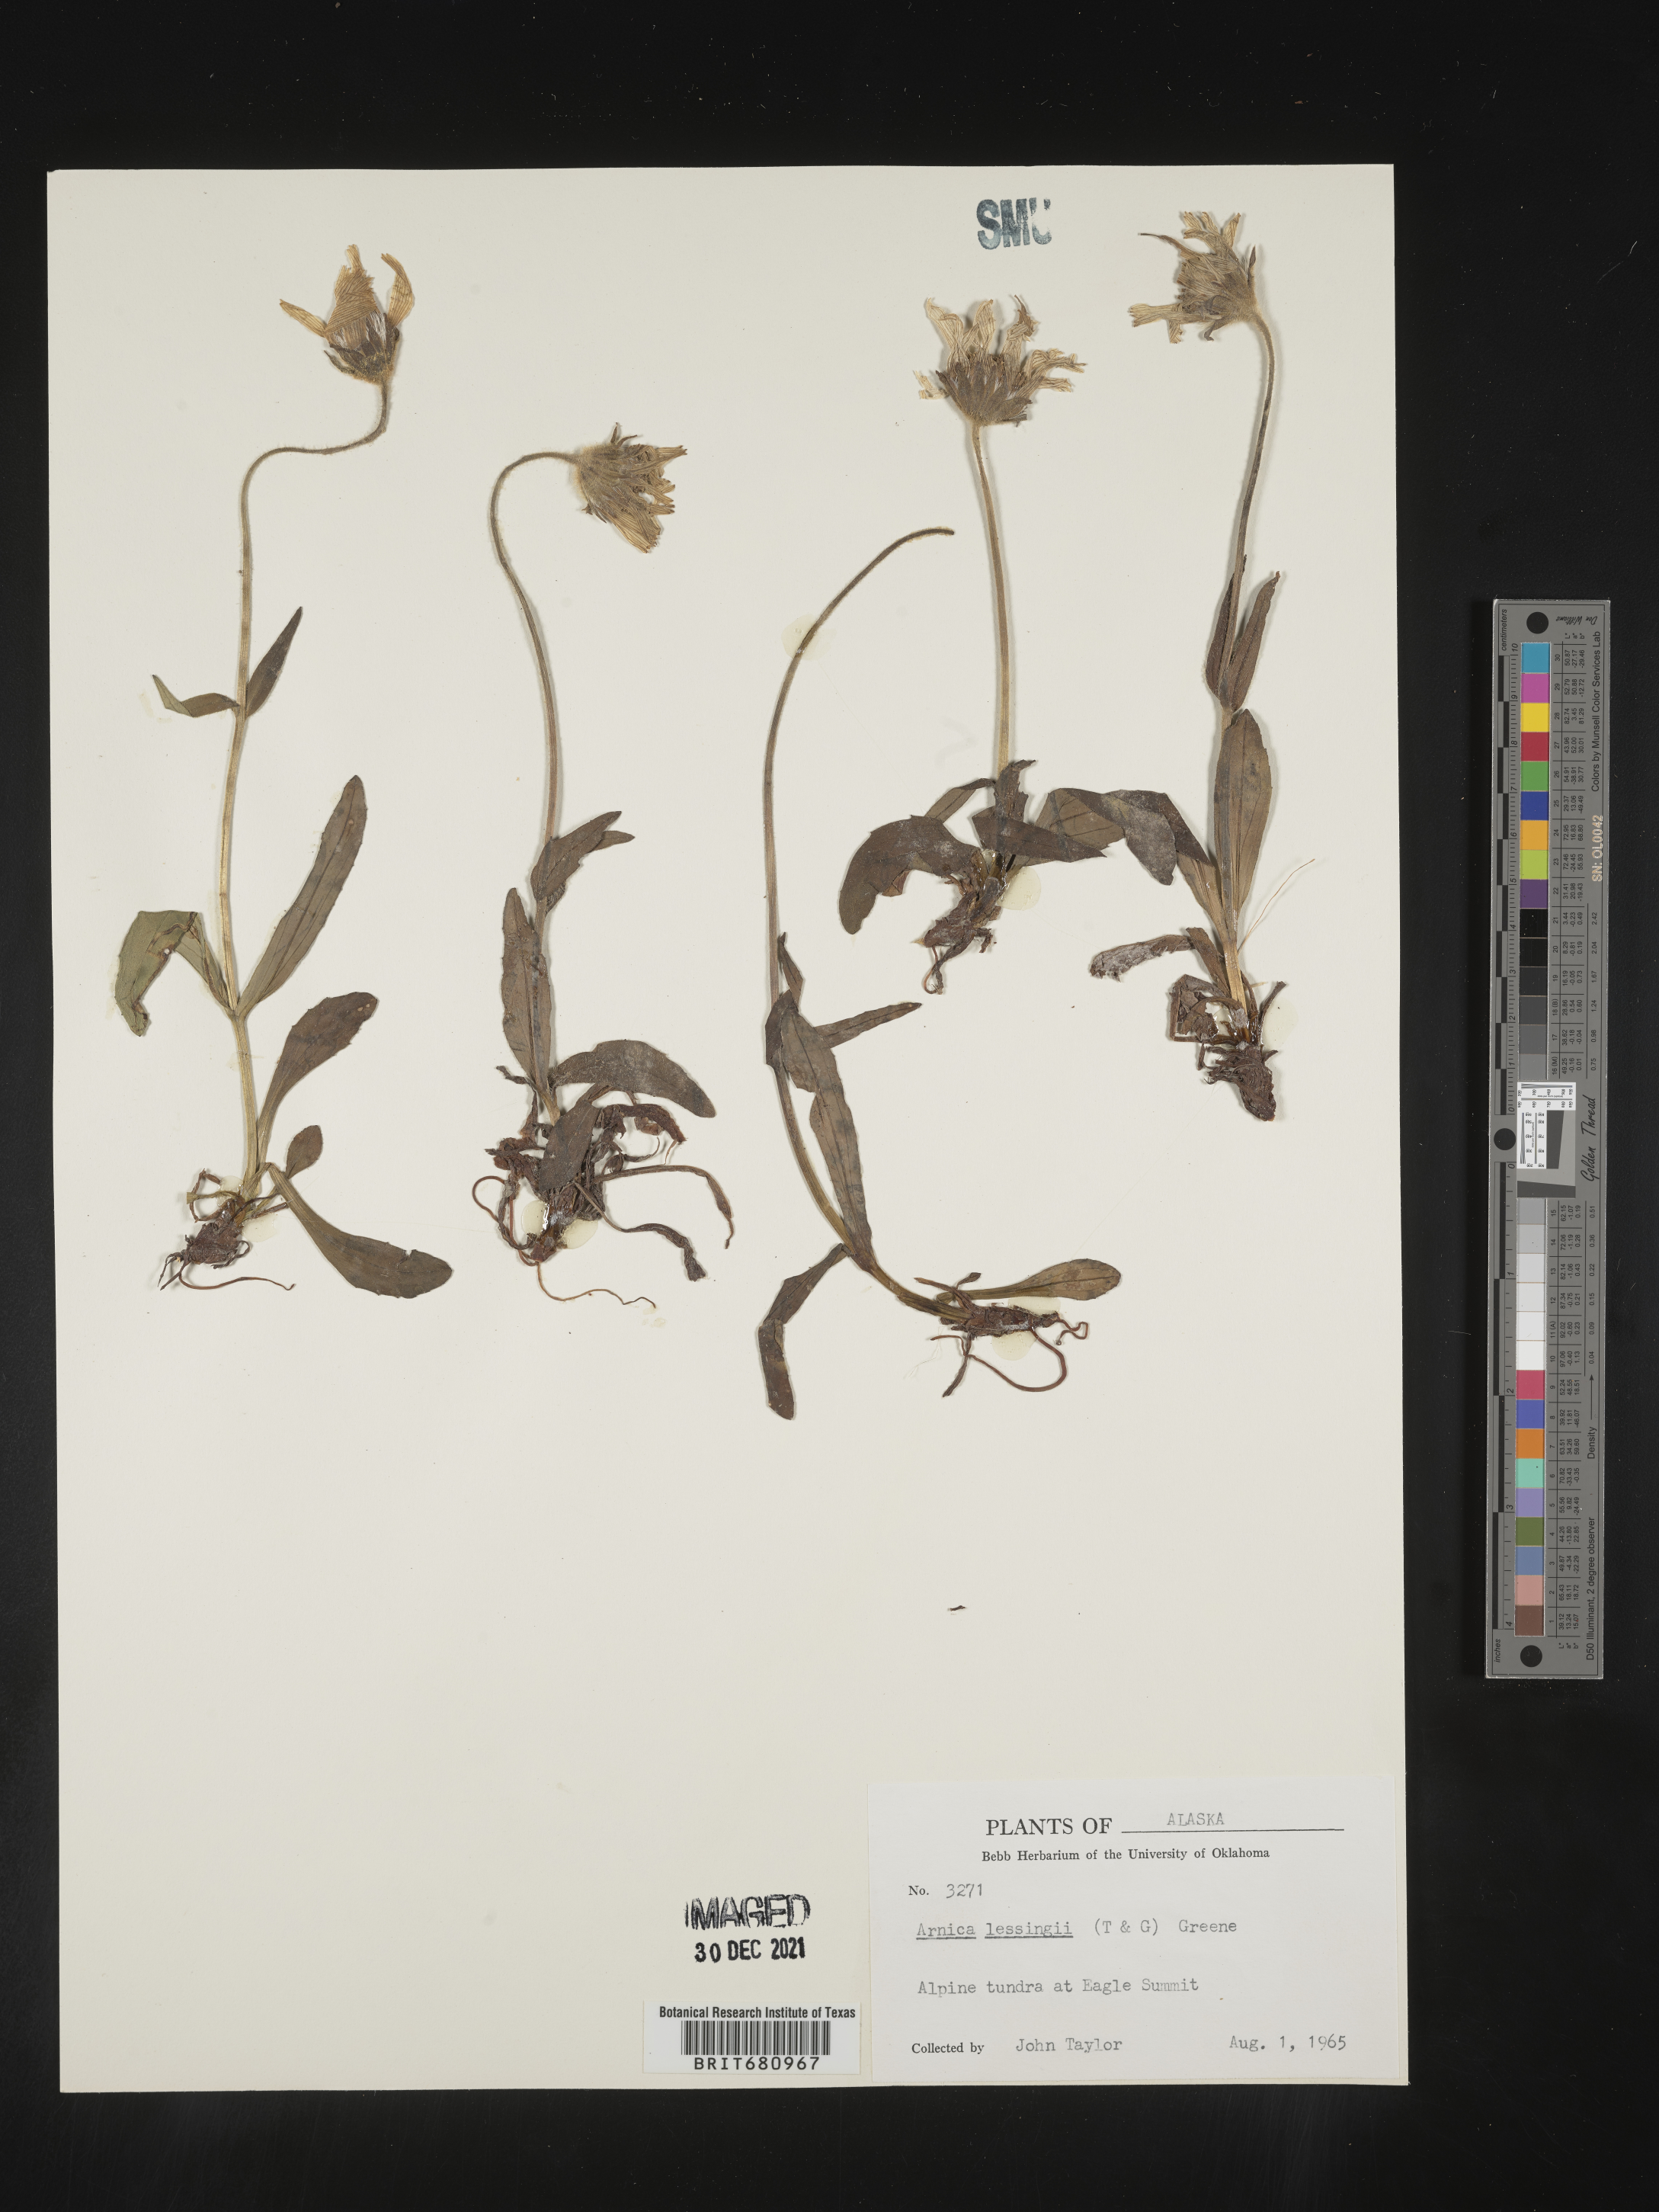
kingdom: Plantae
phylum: Tracheophyta
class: Magnoliopsida
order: Asterales
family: Asteraceae
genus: Arnica
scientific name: Arnica lessingii
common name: Nodding arnica
